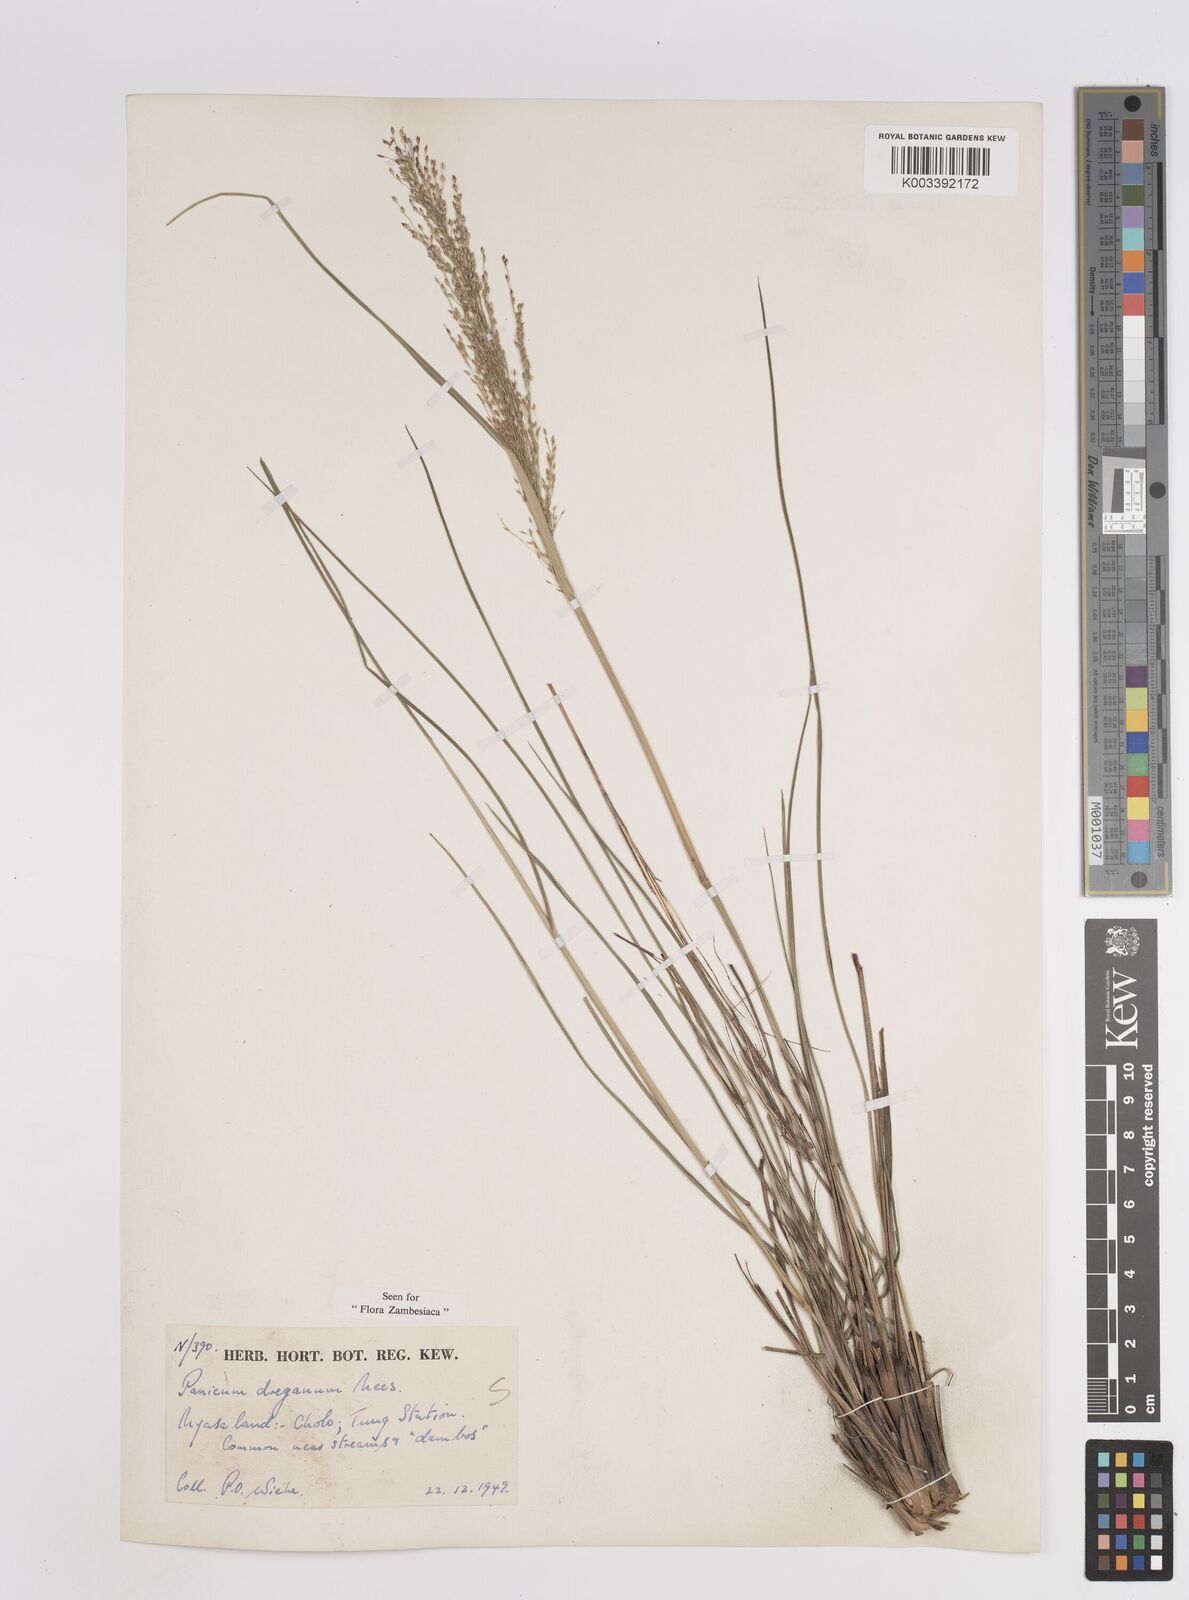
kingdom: Plantae
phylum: Tracheophyta
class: Liliopsida
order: Poales
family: Poaceae
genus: Panicum
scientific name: Panicum dregeanum
